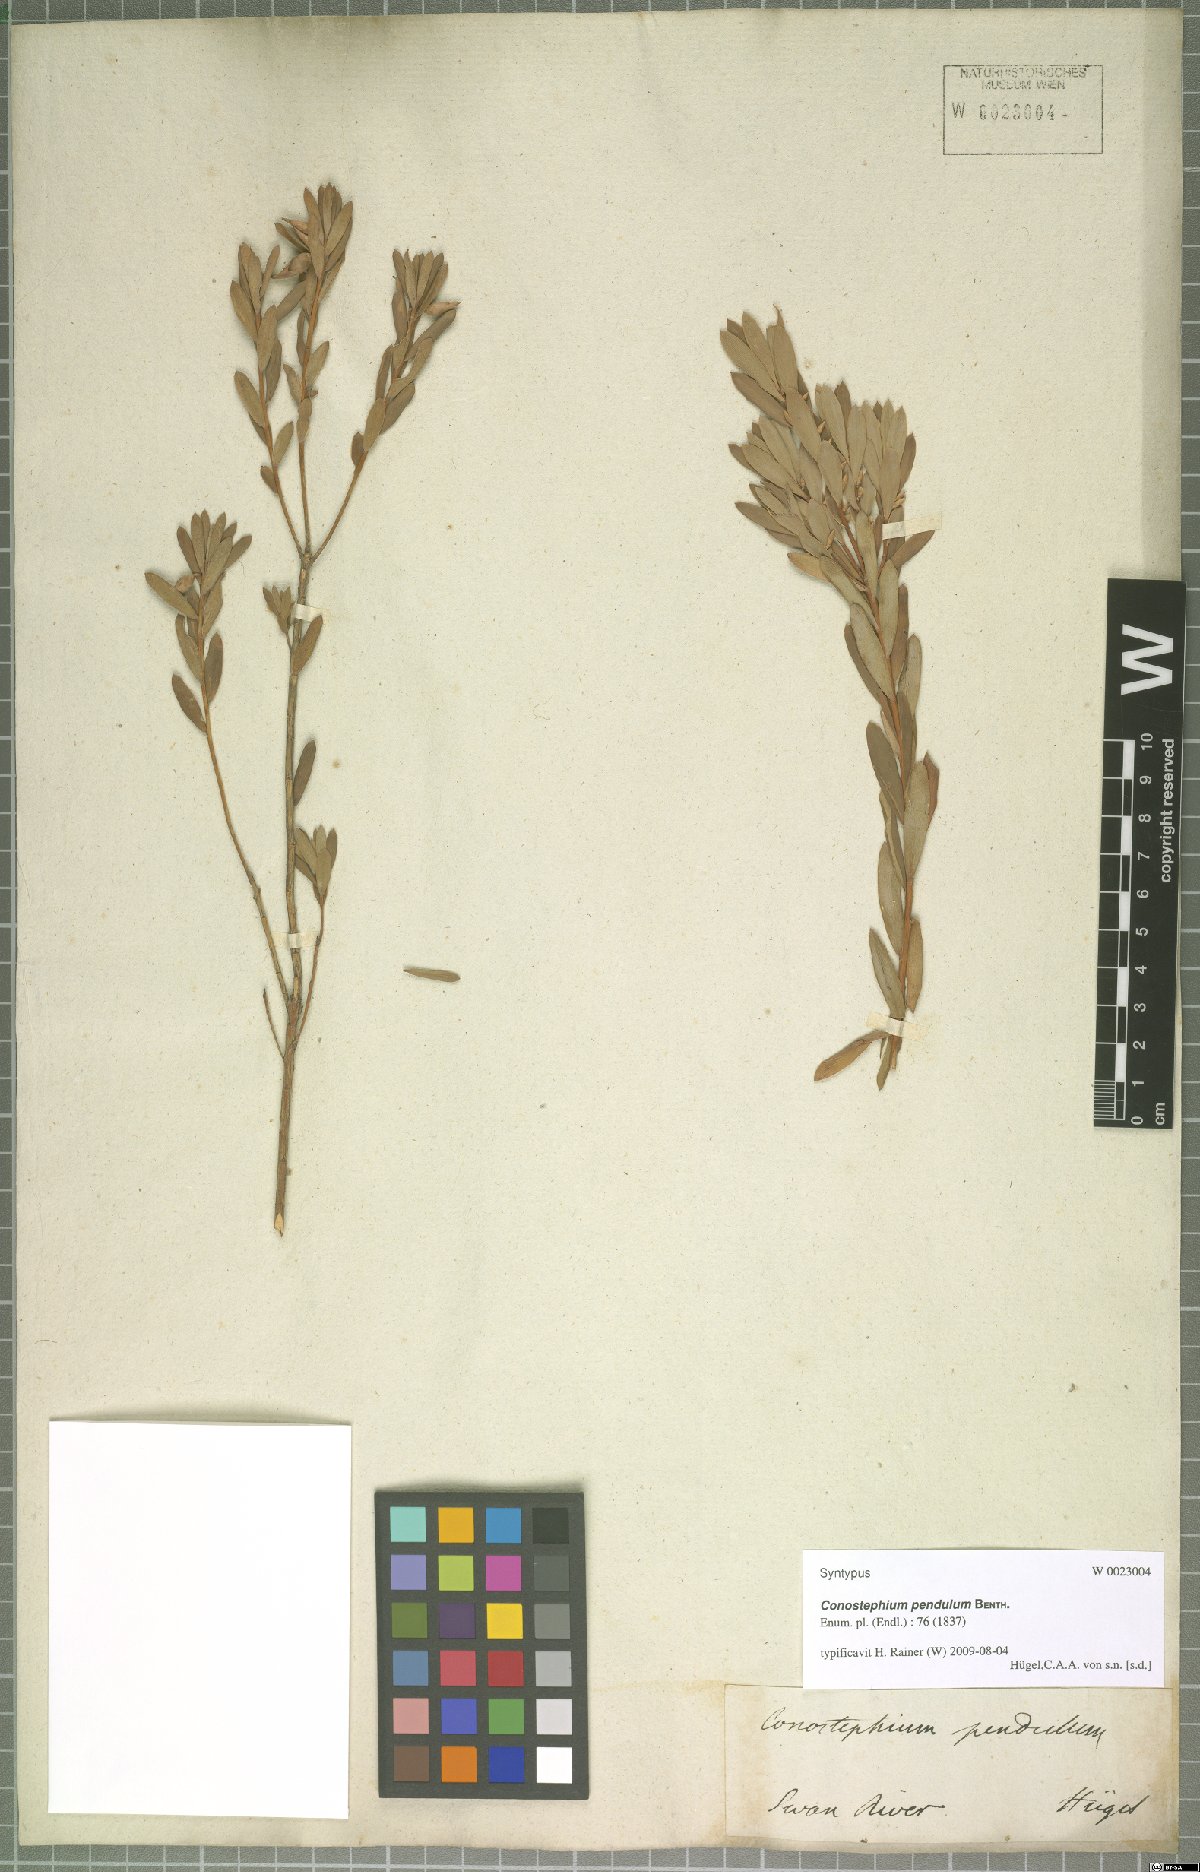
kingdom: Plantae
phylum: Tracheophyta
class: Magnoliopsida
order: Ericales
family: Ericaceae
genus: Conostephium
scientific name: Conostephium pendulum
